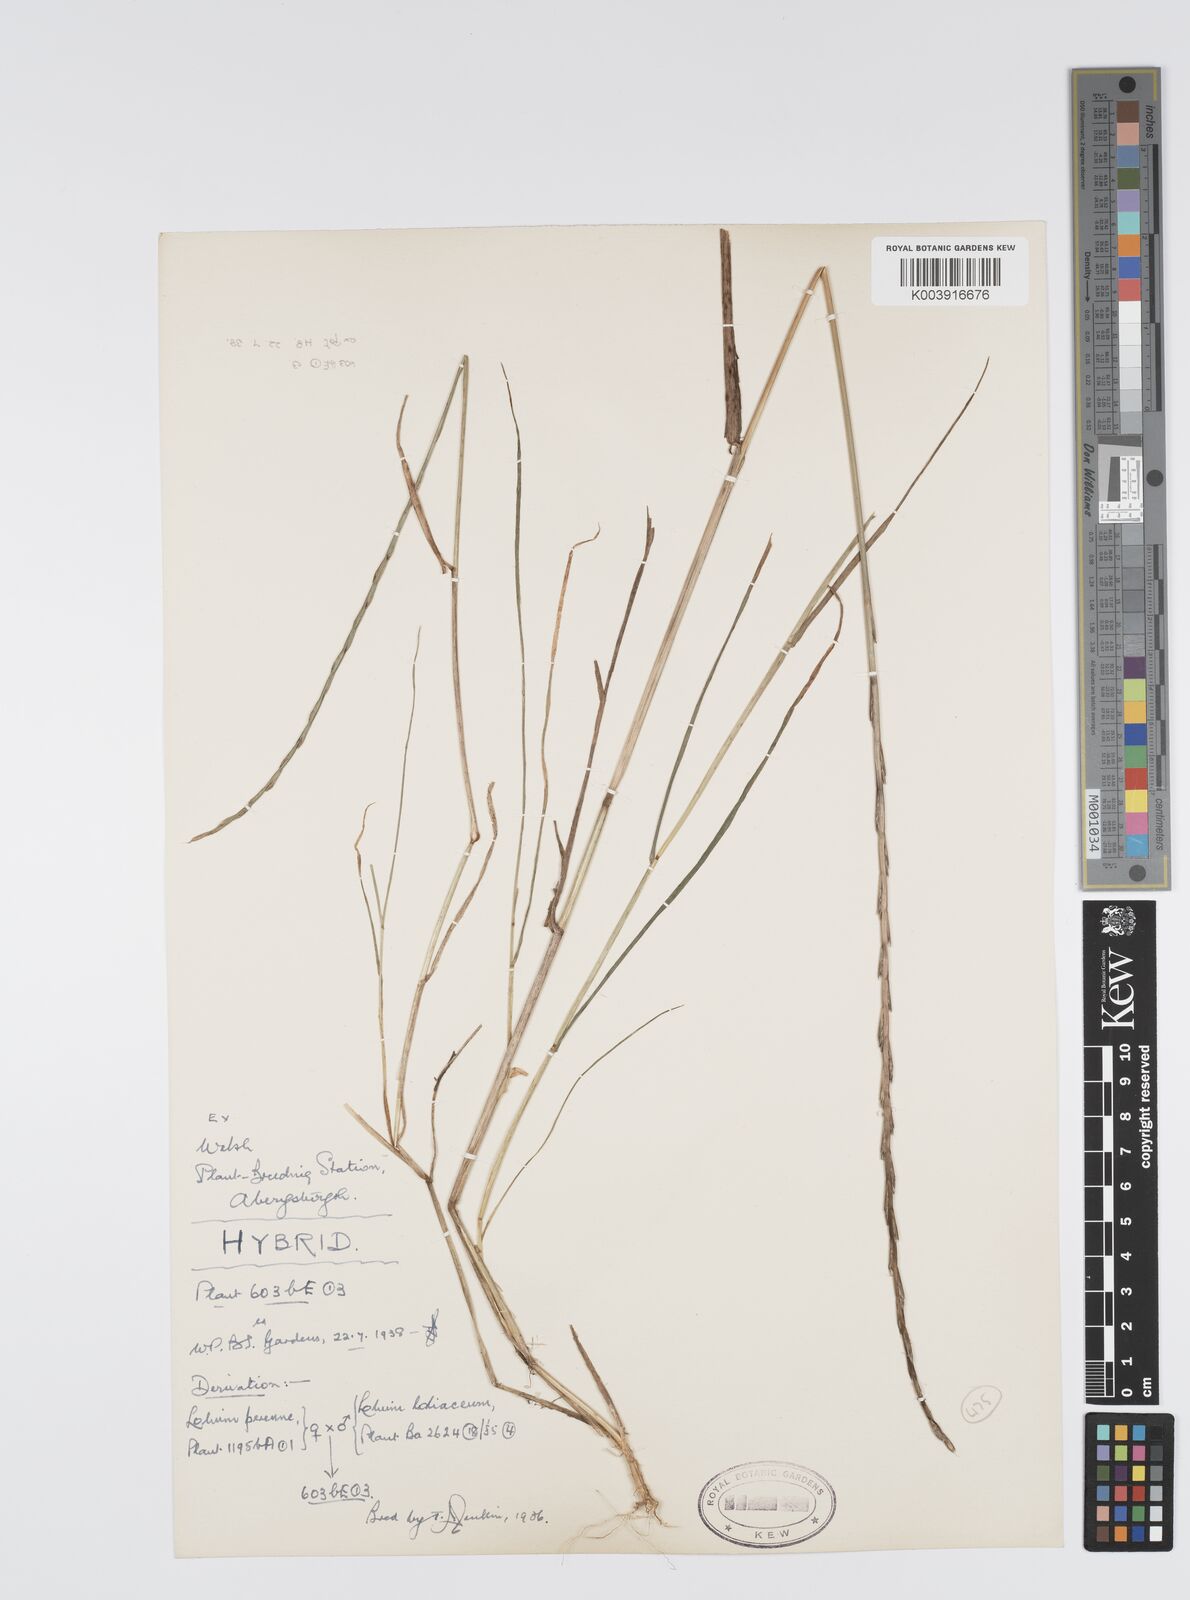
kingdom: Plantae
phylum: Tracheophyta
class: Liliopsida
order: Poales
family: Poaceae
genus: Lolium
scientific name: Lolium perenne
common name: Perennial ryegrass
